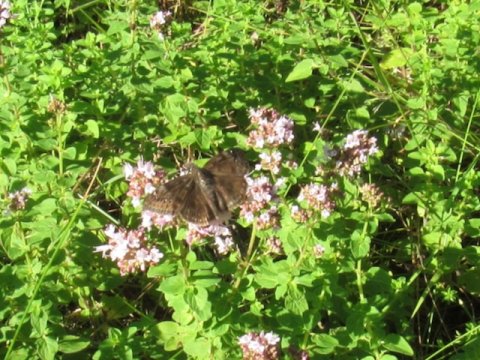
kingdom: Animalia
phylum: Arthropoda
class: Insecta
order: Lepidoptera
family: Hesperiidae
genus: Gesta
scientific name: Gesta
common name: Wild Indigo Duskywing
